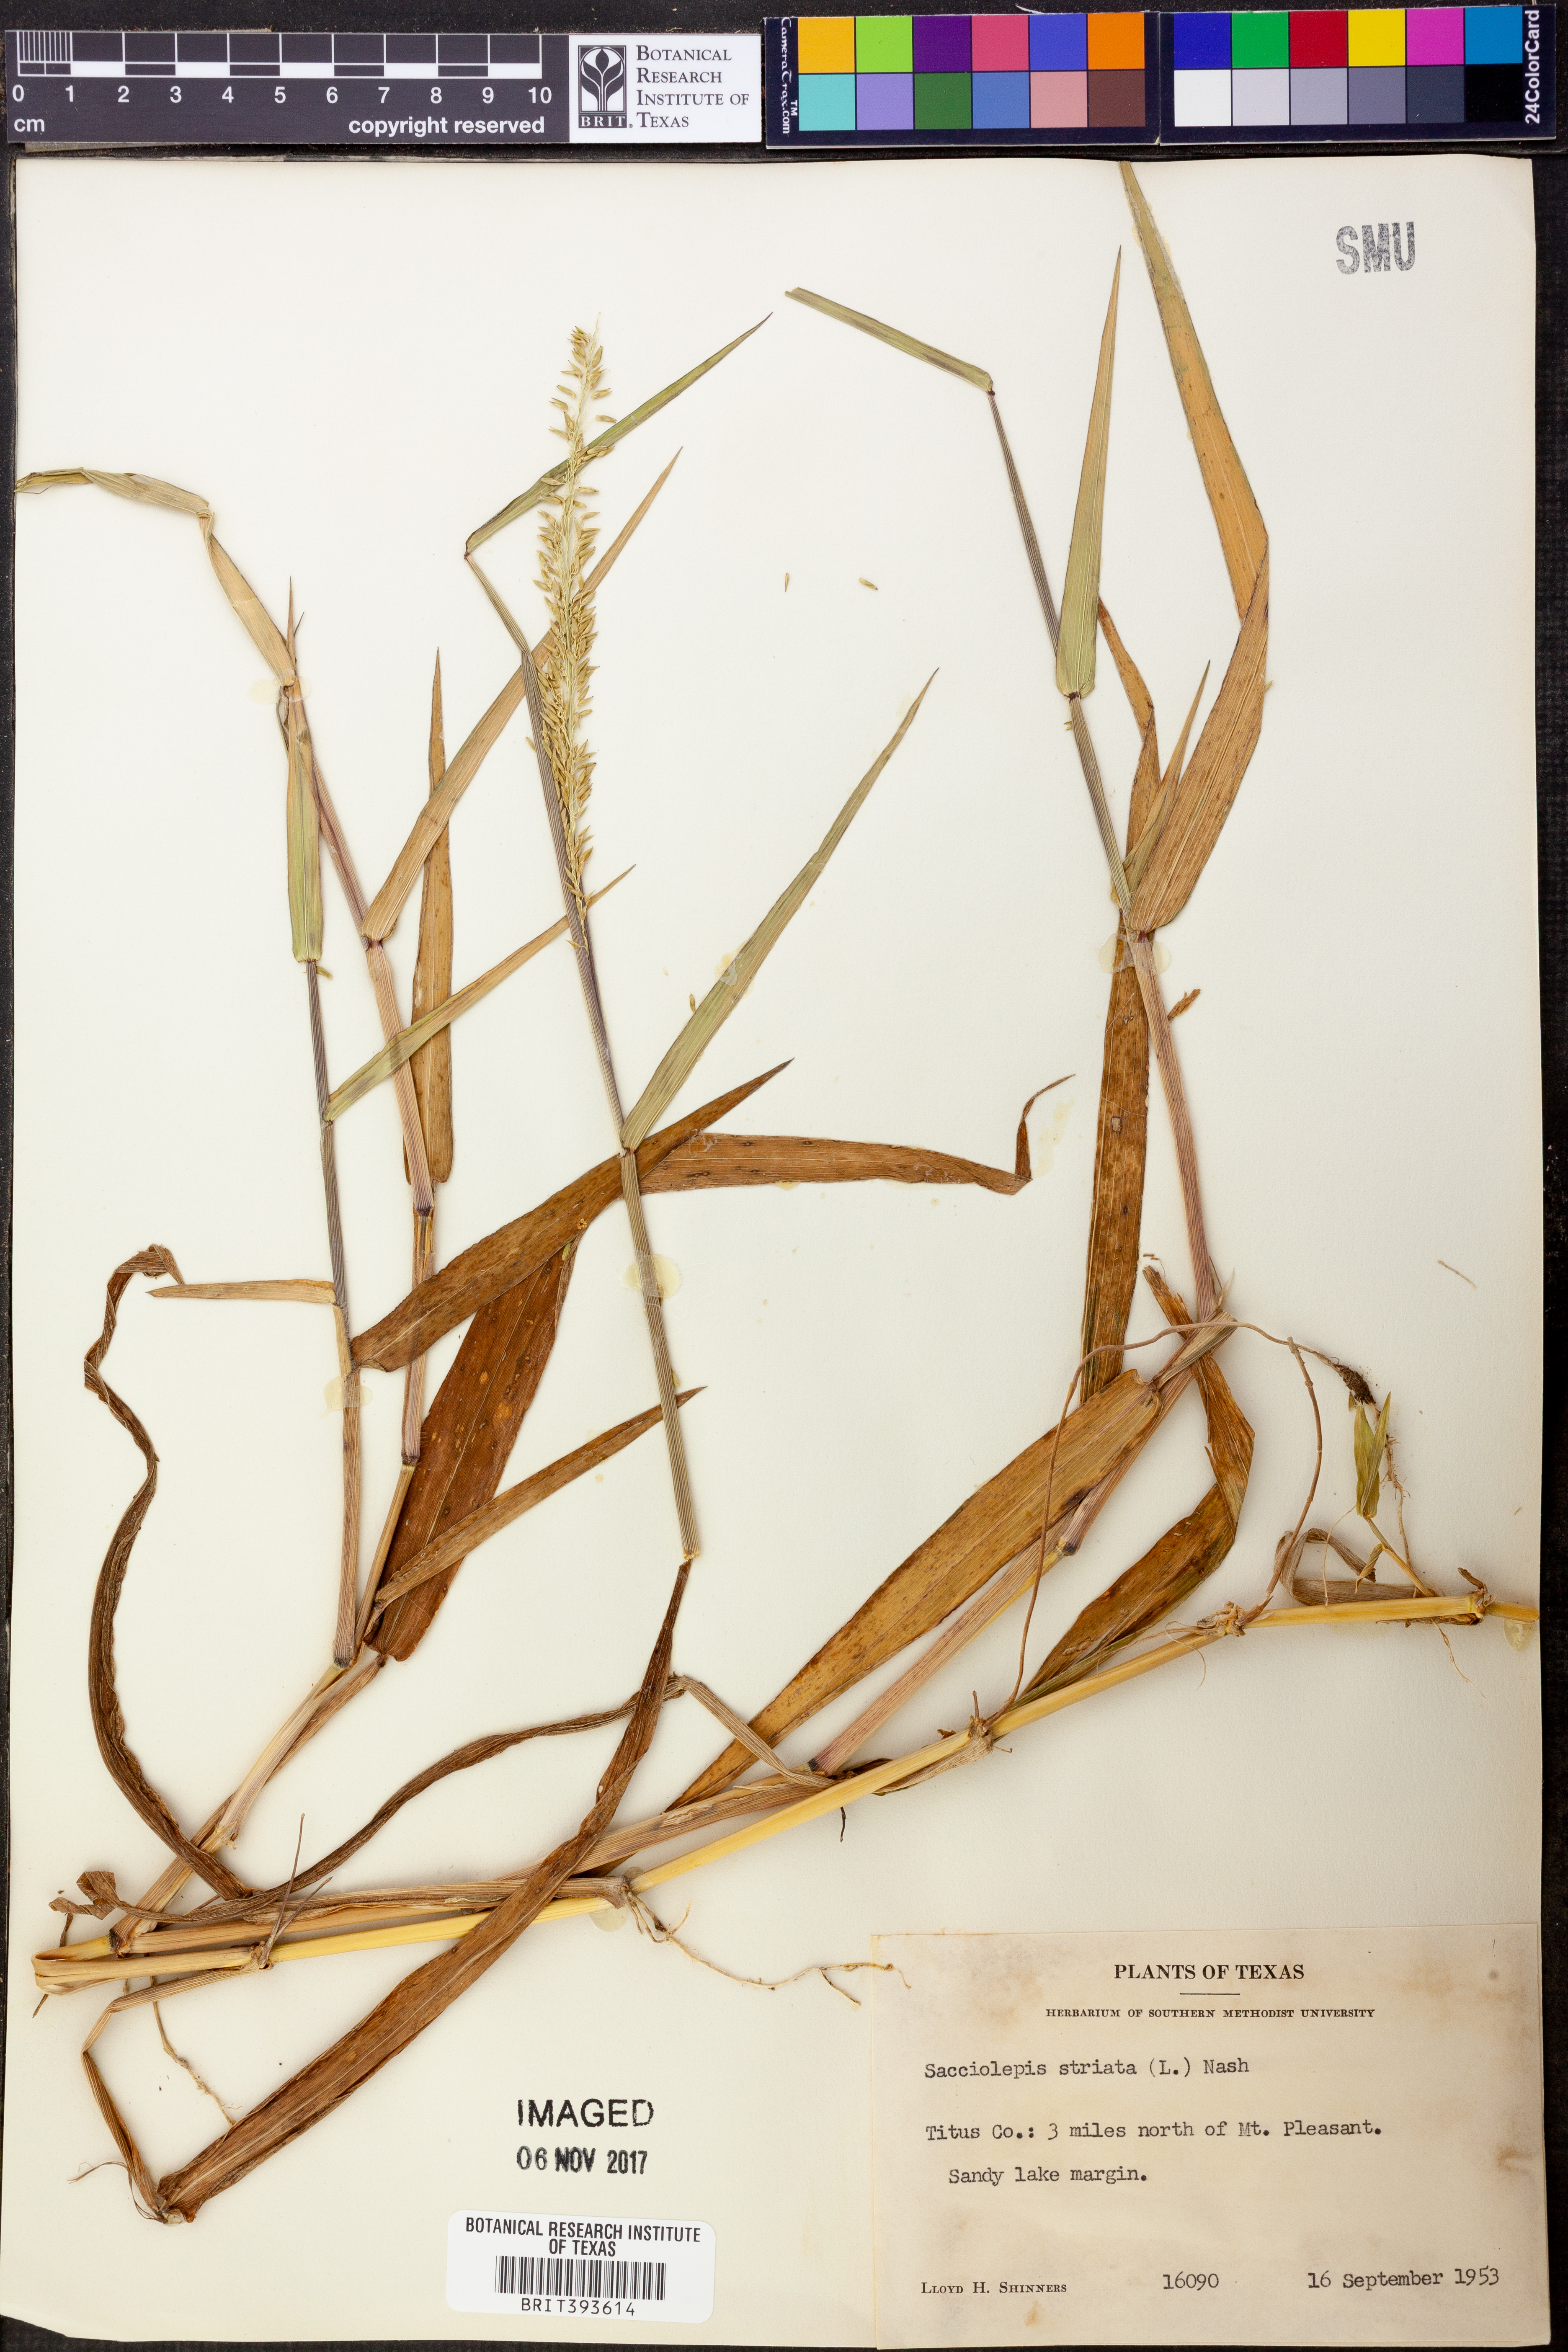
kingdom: Plantae
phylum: Tracheophyta
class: Liliopsida
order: Poales
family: Poaceae
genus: Sacciolepis
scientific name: Sacciolepis striata
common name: American cupscale
